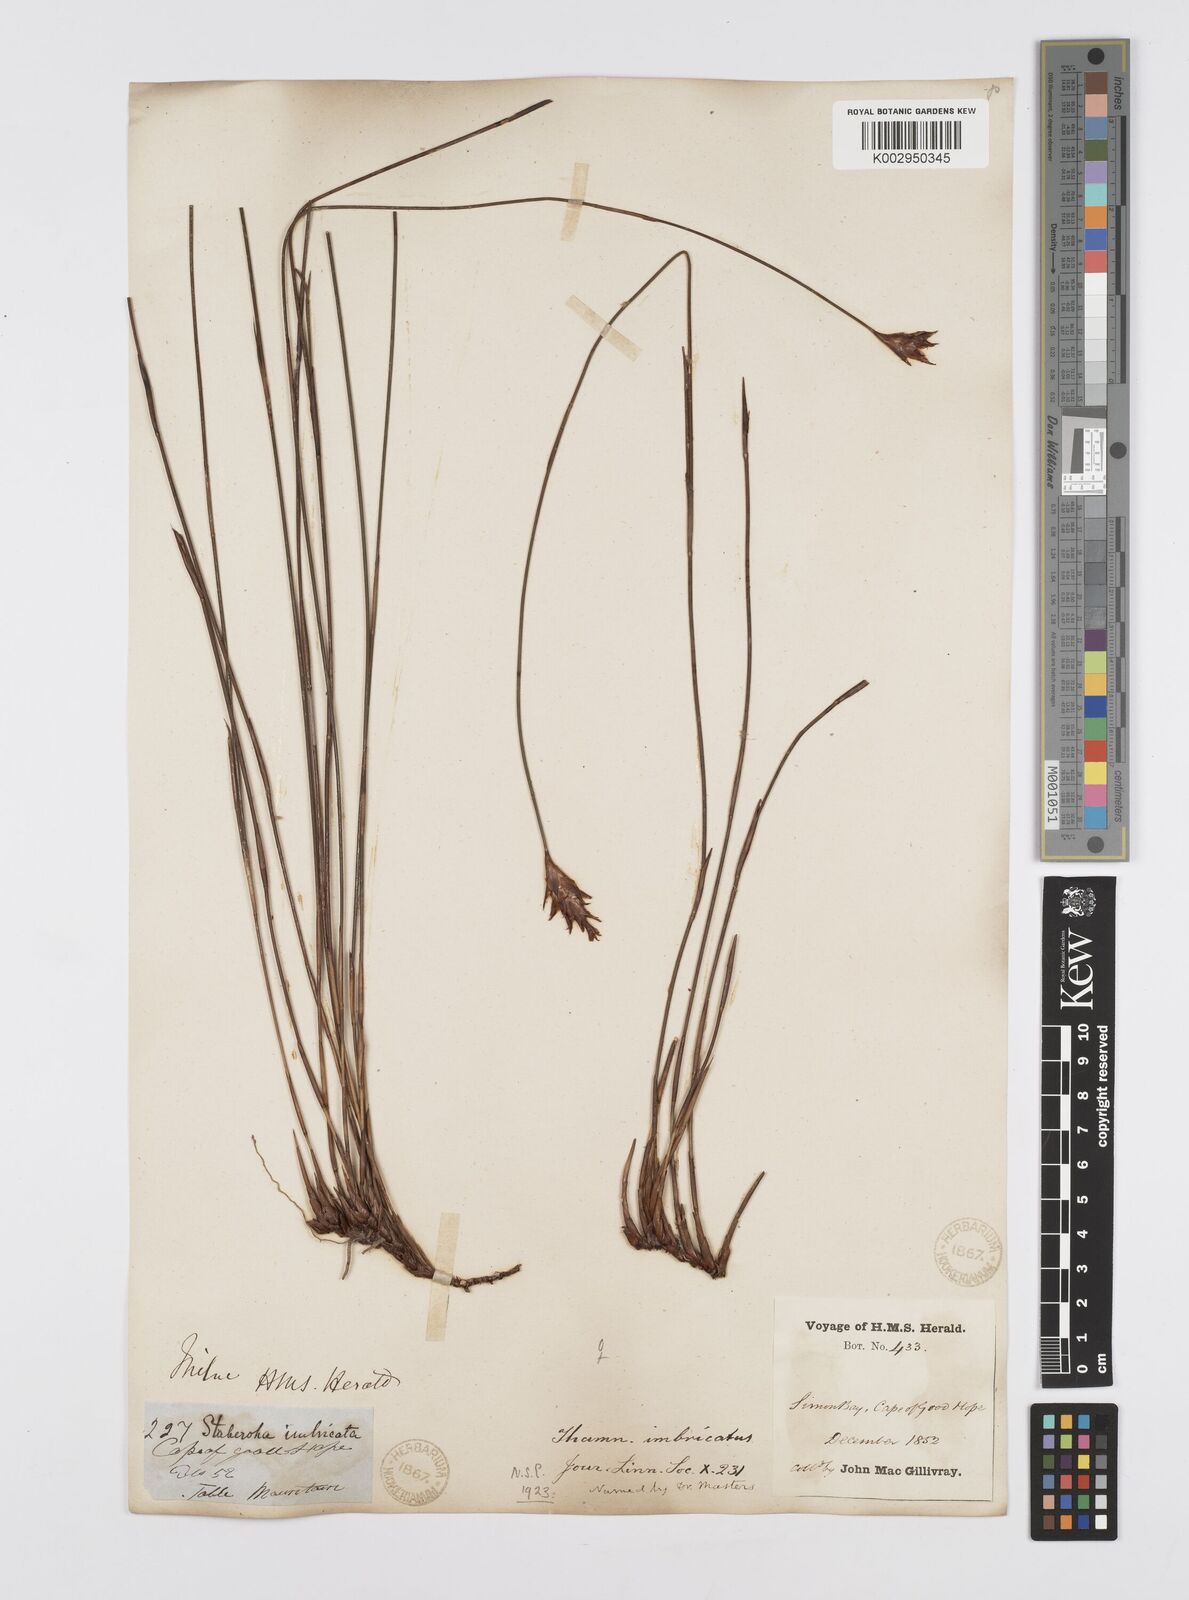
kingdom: Plantae
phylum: Tracheophyta
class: Liliopsida
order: Poales
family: Restionaceae
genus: Staberoha
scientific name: Staberoha distachyos
